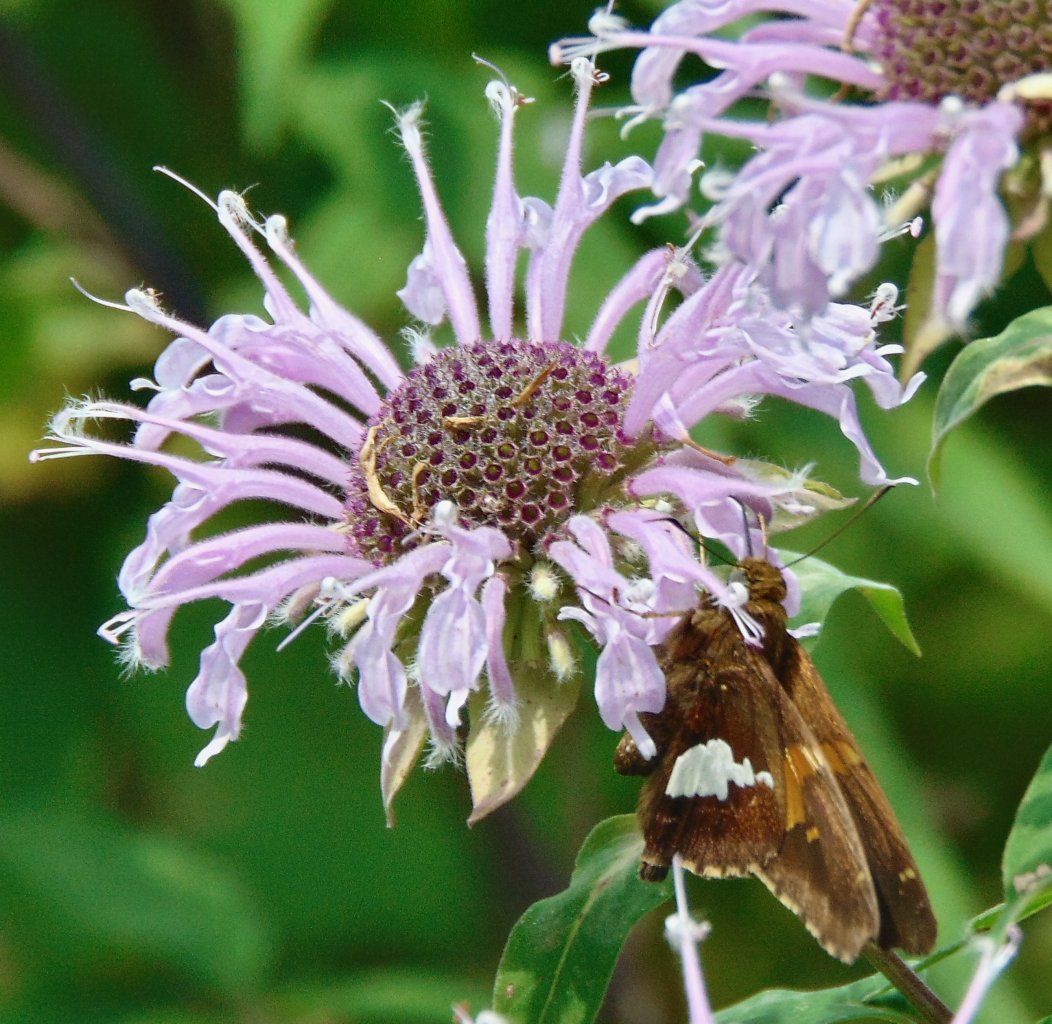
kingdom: Animalia
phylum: Arthropoda
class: Insecta
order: Lepidoptera
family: Hesperiidae
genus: Epargyreus
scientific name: Epargyreus clarus
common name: Silver-spotted Skipper
